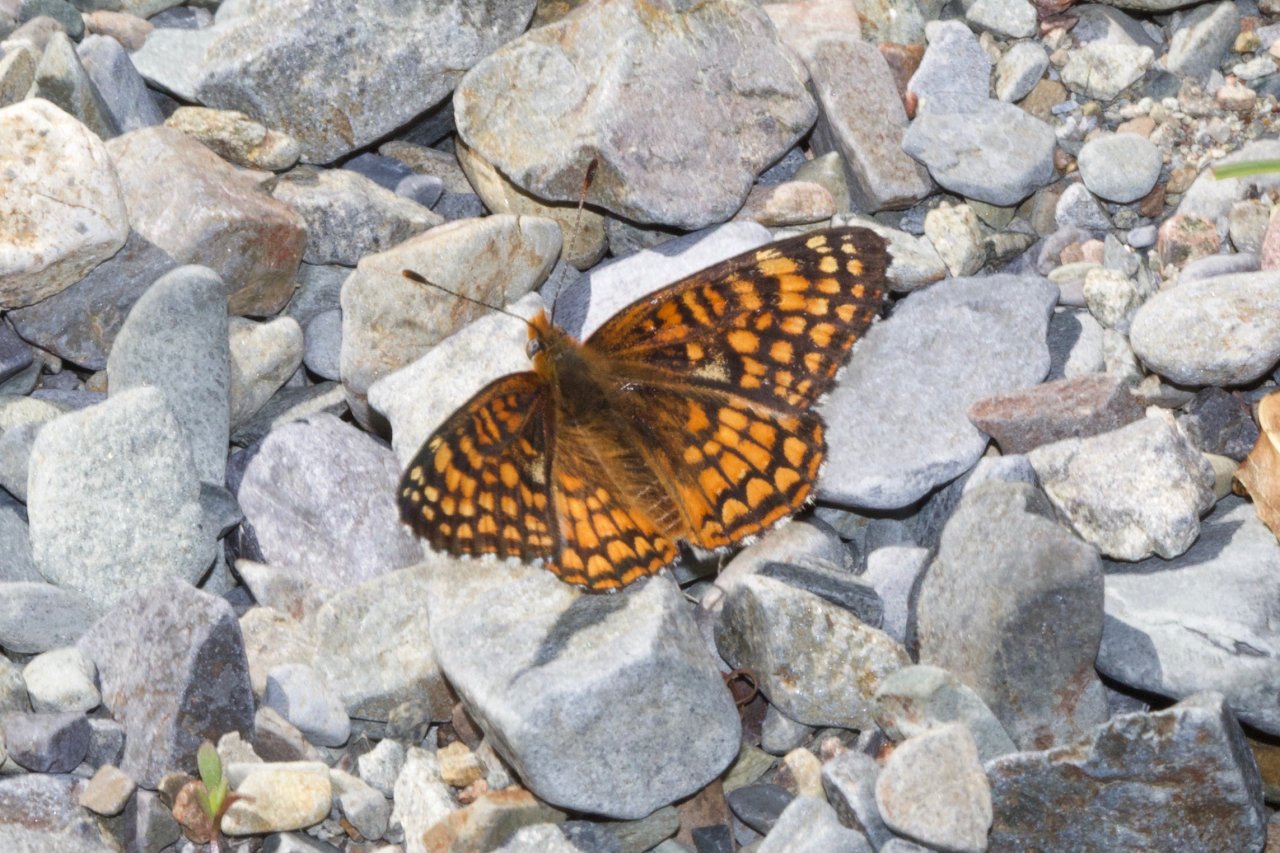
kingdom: Animalia
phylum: Arthropoda
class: Insecta
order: Lepidoptera
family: Nymphalidae
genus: Chlosyne
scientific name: Chlosyne acastus
